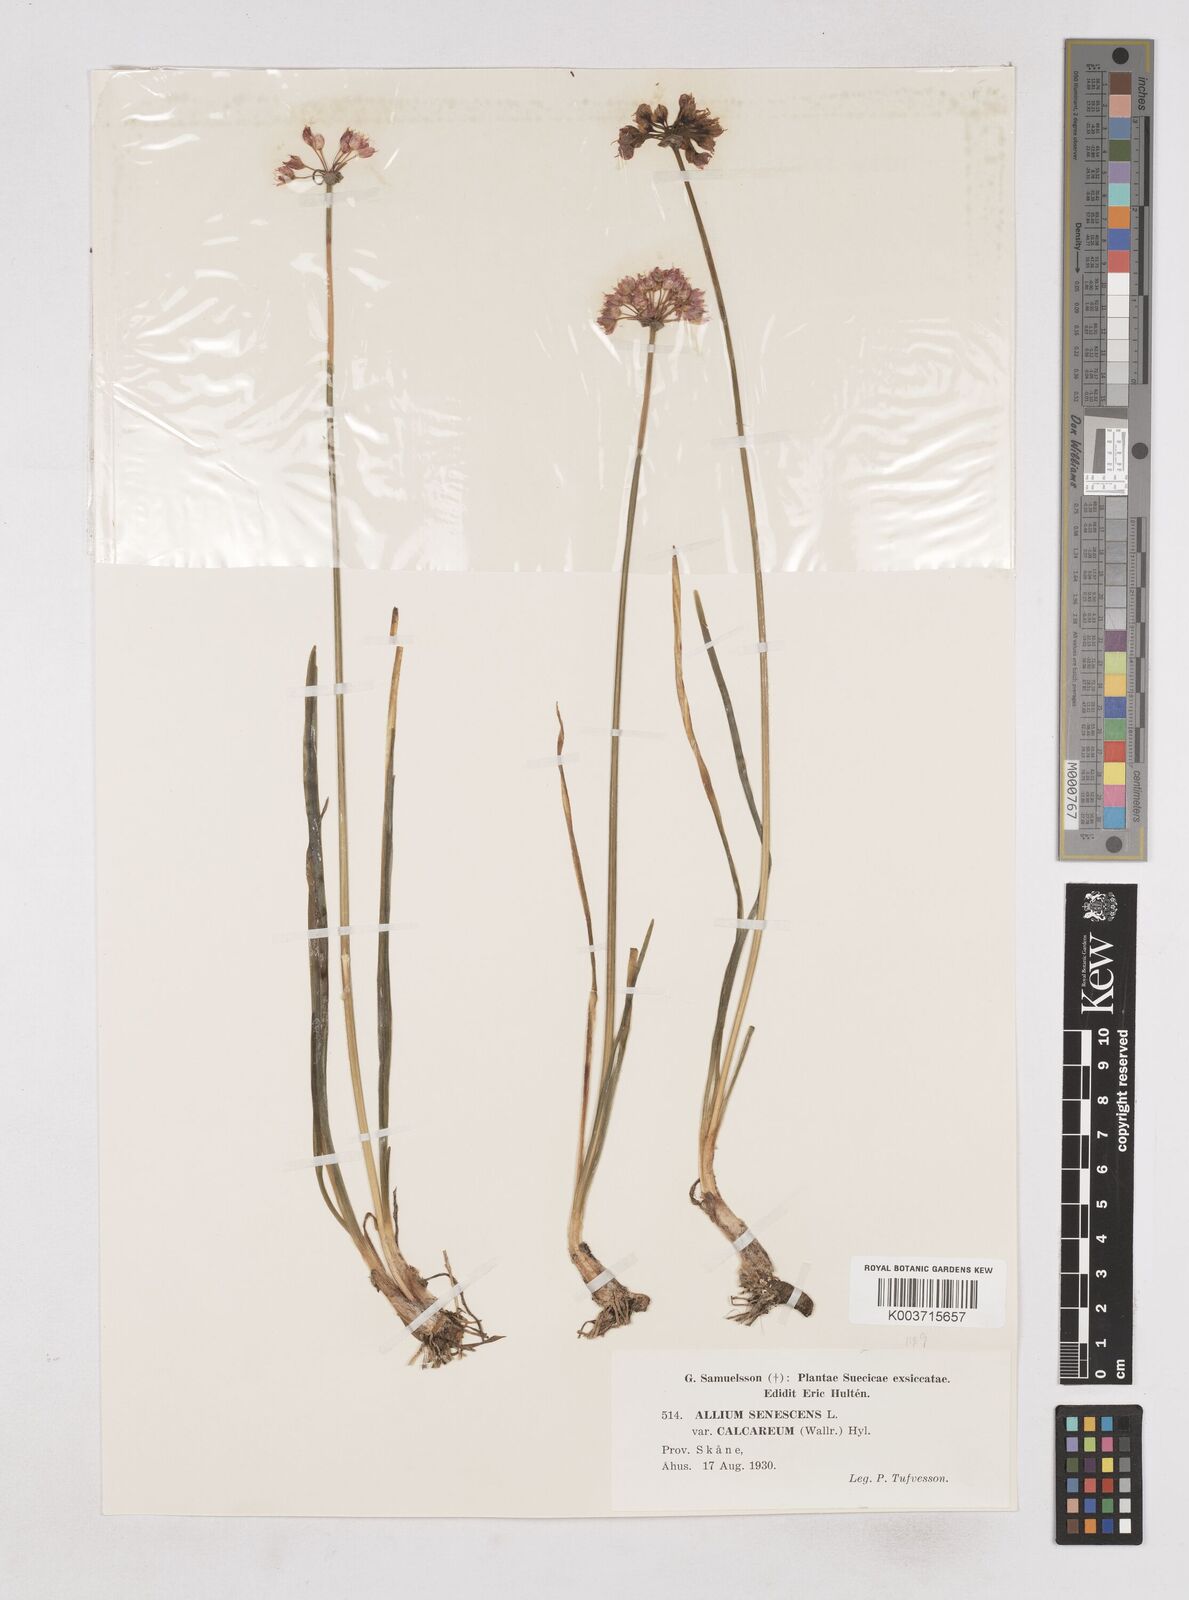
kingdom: Plantae
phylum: Tracheophyta
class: Liliopsida
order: Asparagales
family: Amaryllidaceae
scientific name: Amaryllidaceae
